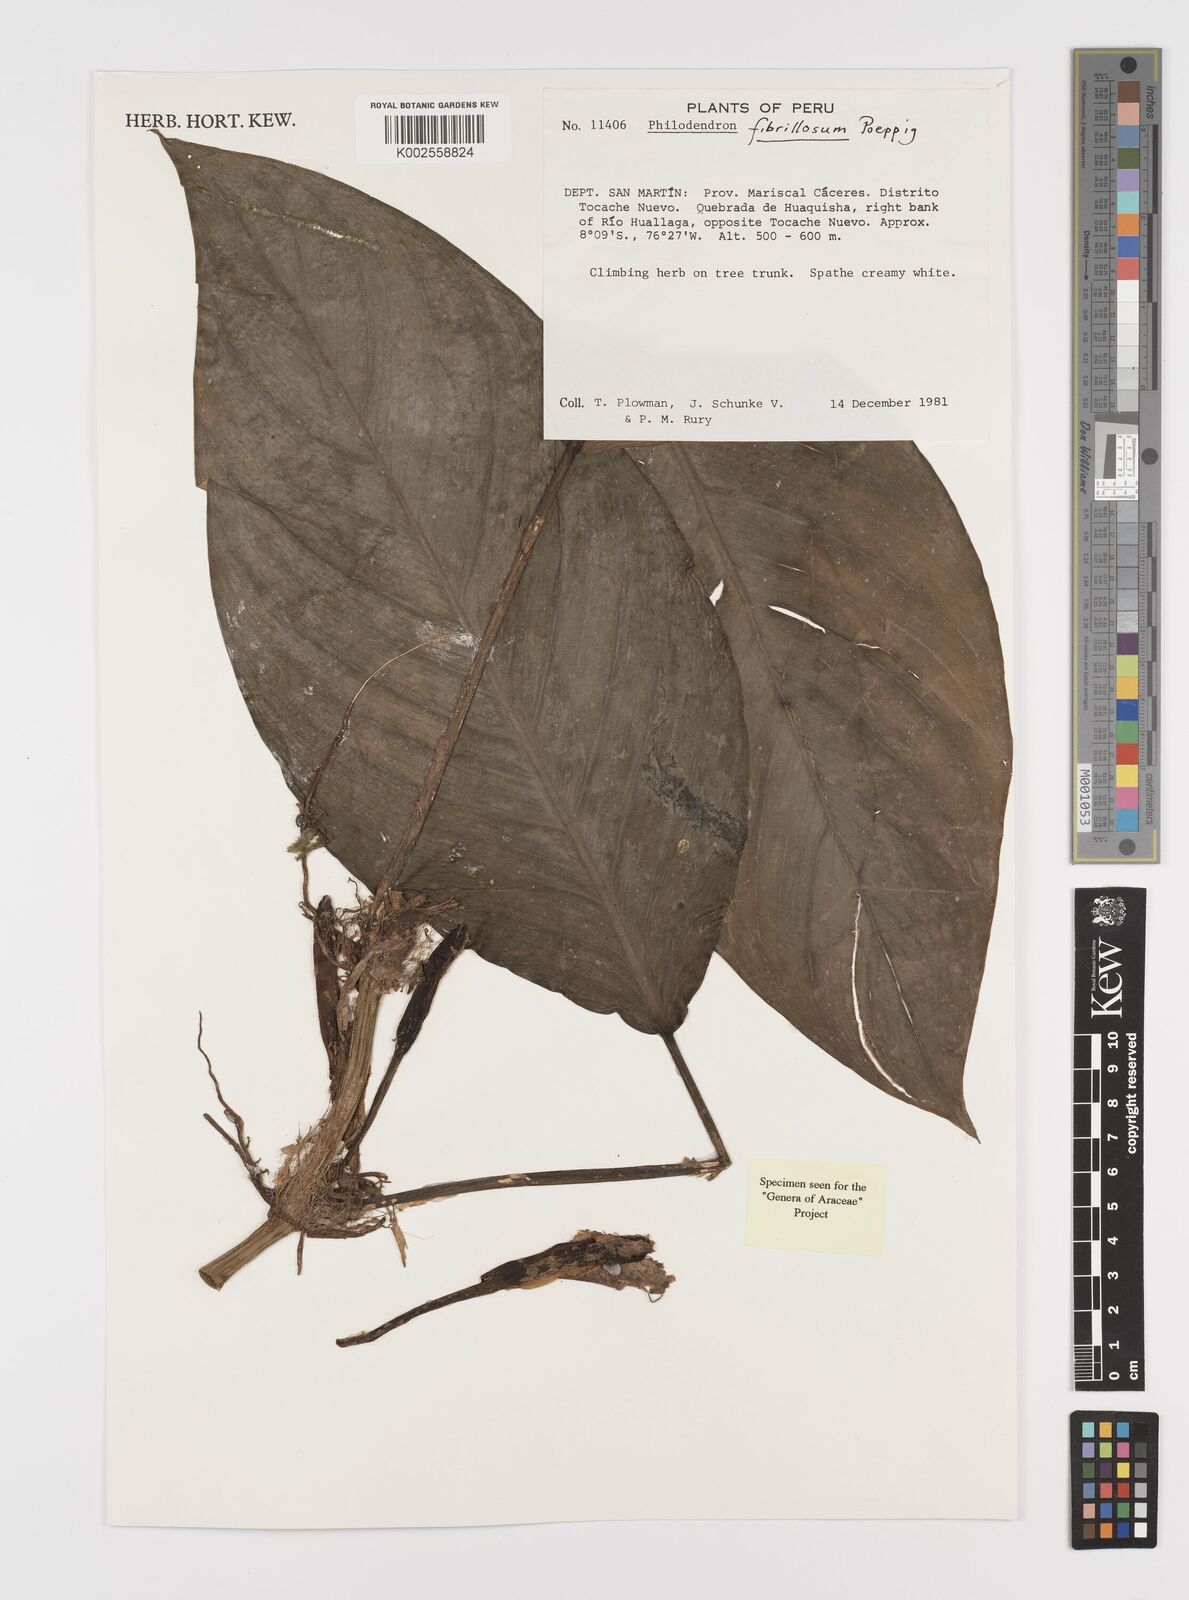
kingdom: Plantae
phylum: Tracheophyta
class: Liliopsida
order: Alismatales
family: Araceae
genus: Philodendron
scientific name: Philodendron fibrillosum
